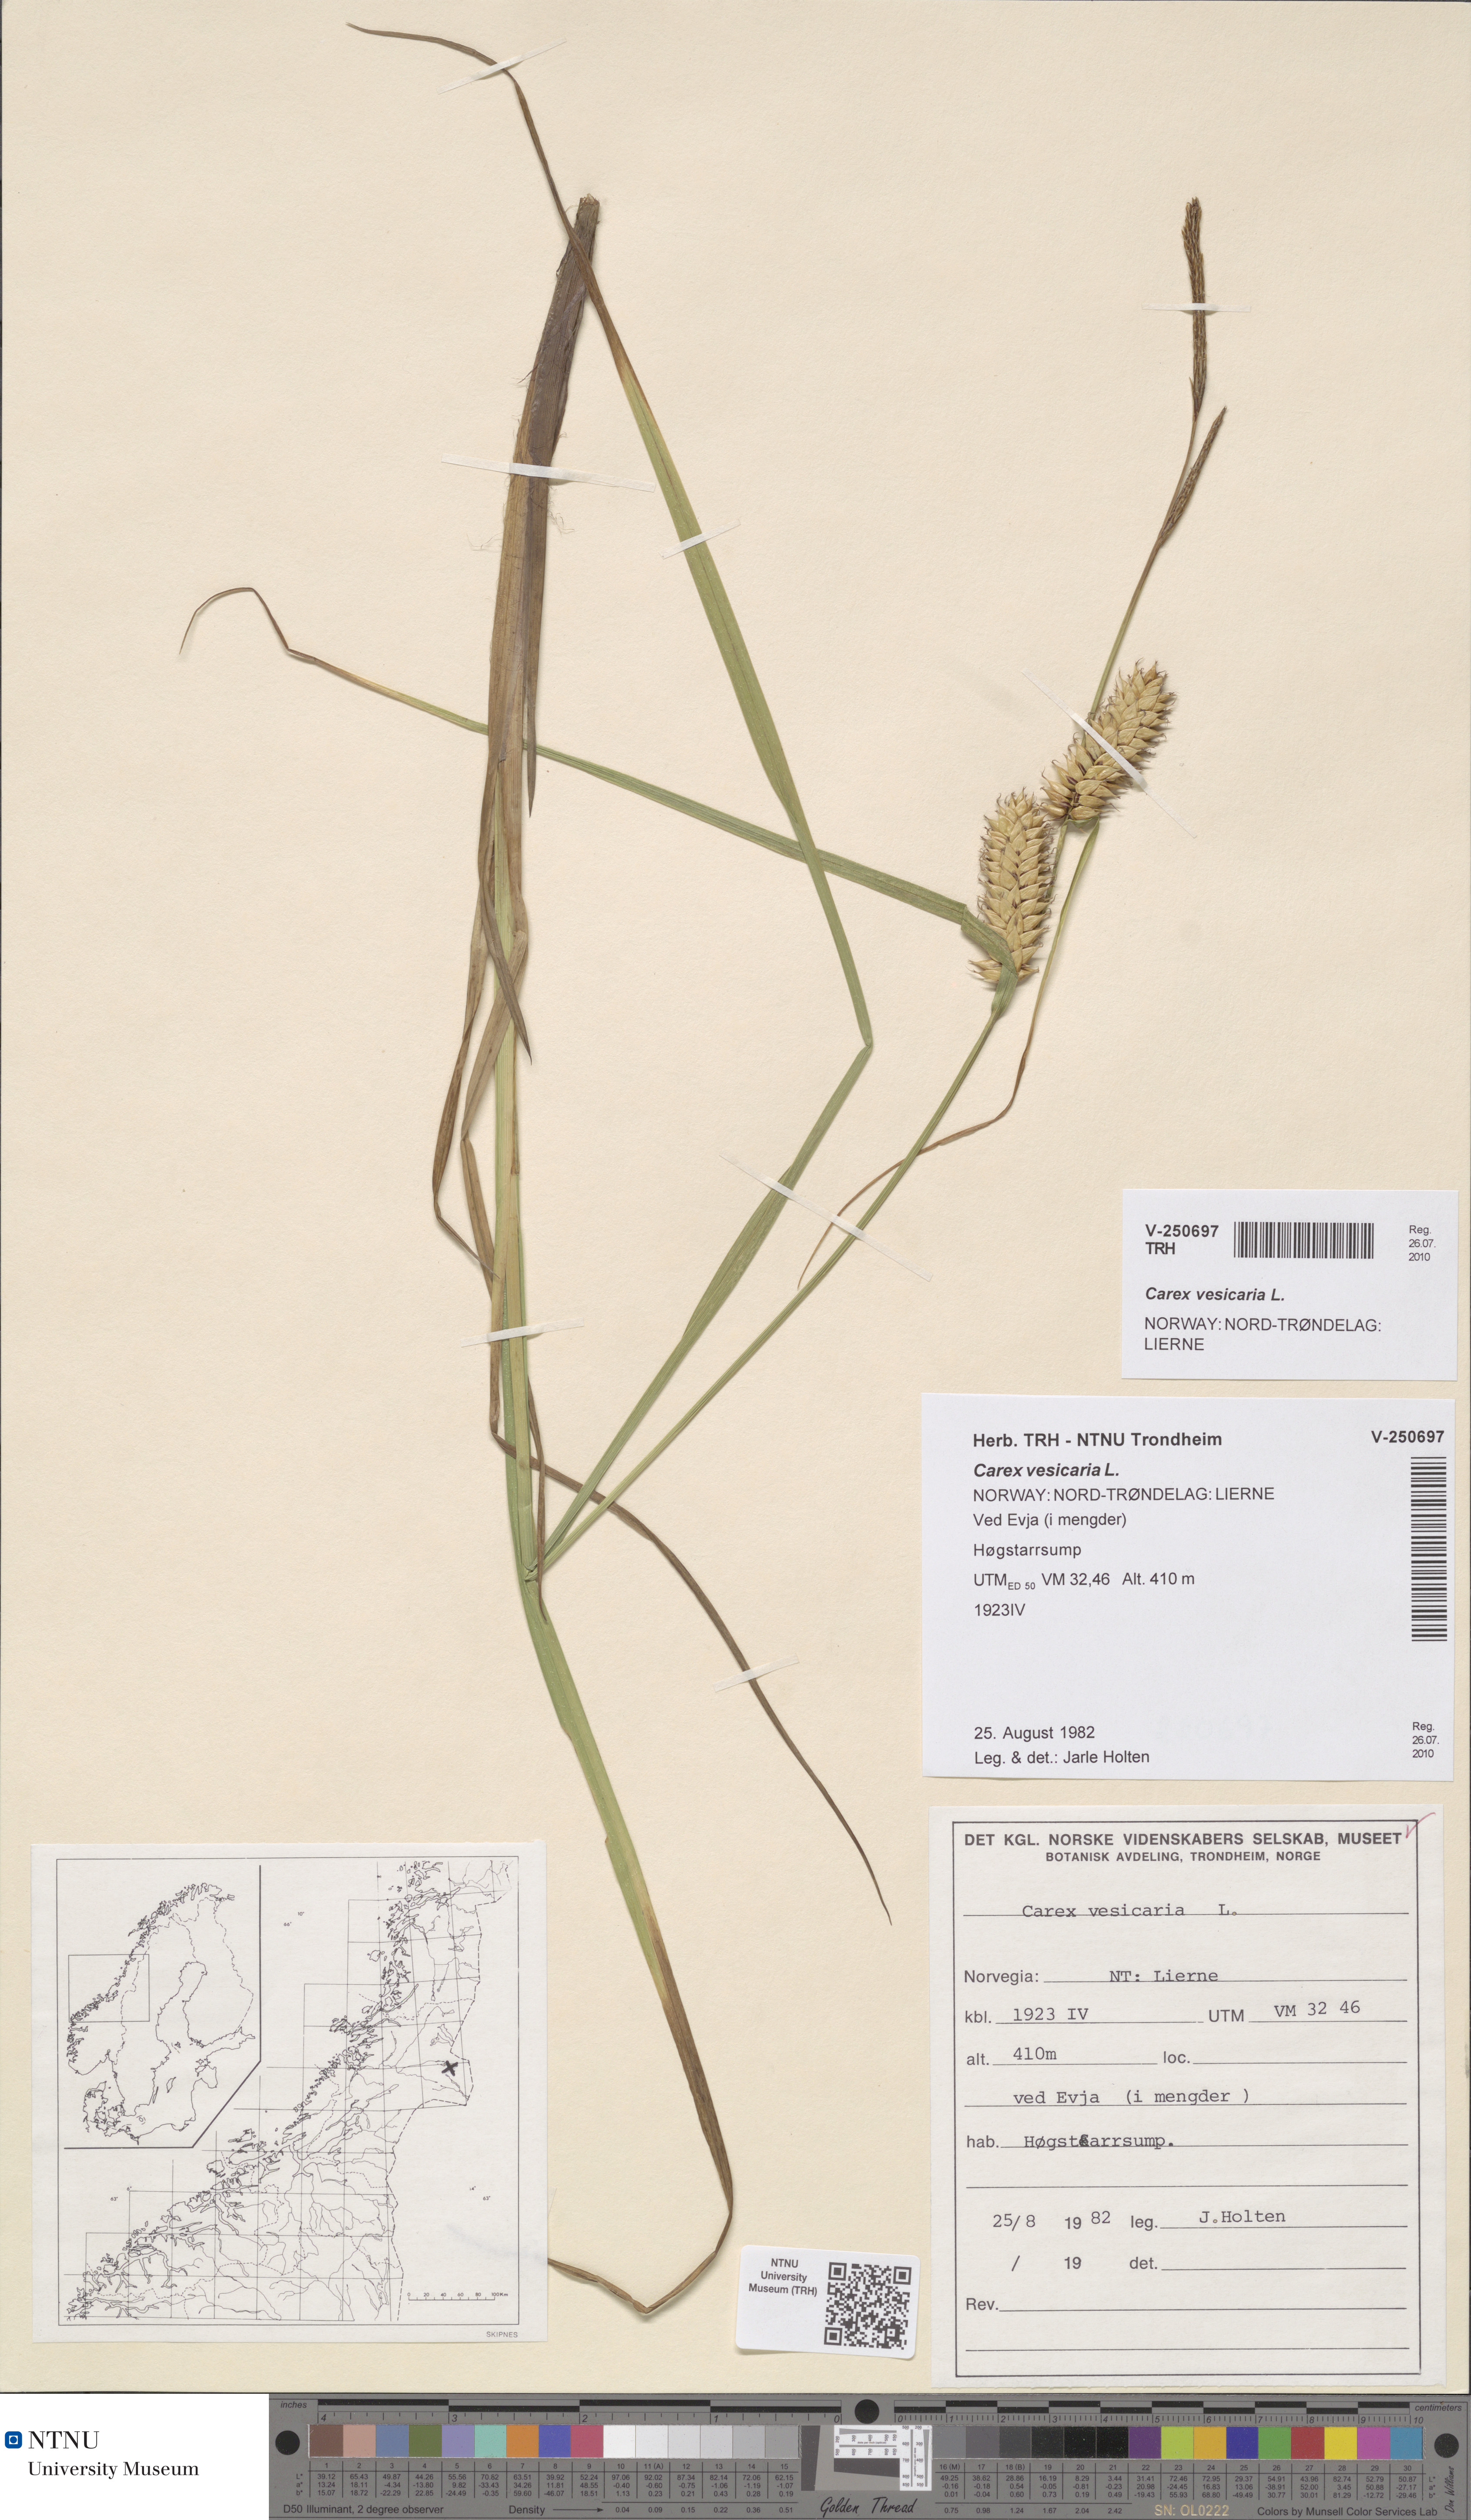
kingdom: Plantae
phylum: Tracheophyta
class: Liliopsida
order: Poales
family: Cyperaceae
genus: Carex
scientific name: Carex vesicaria
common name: Bladder-sedge
